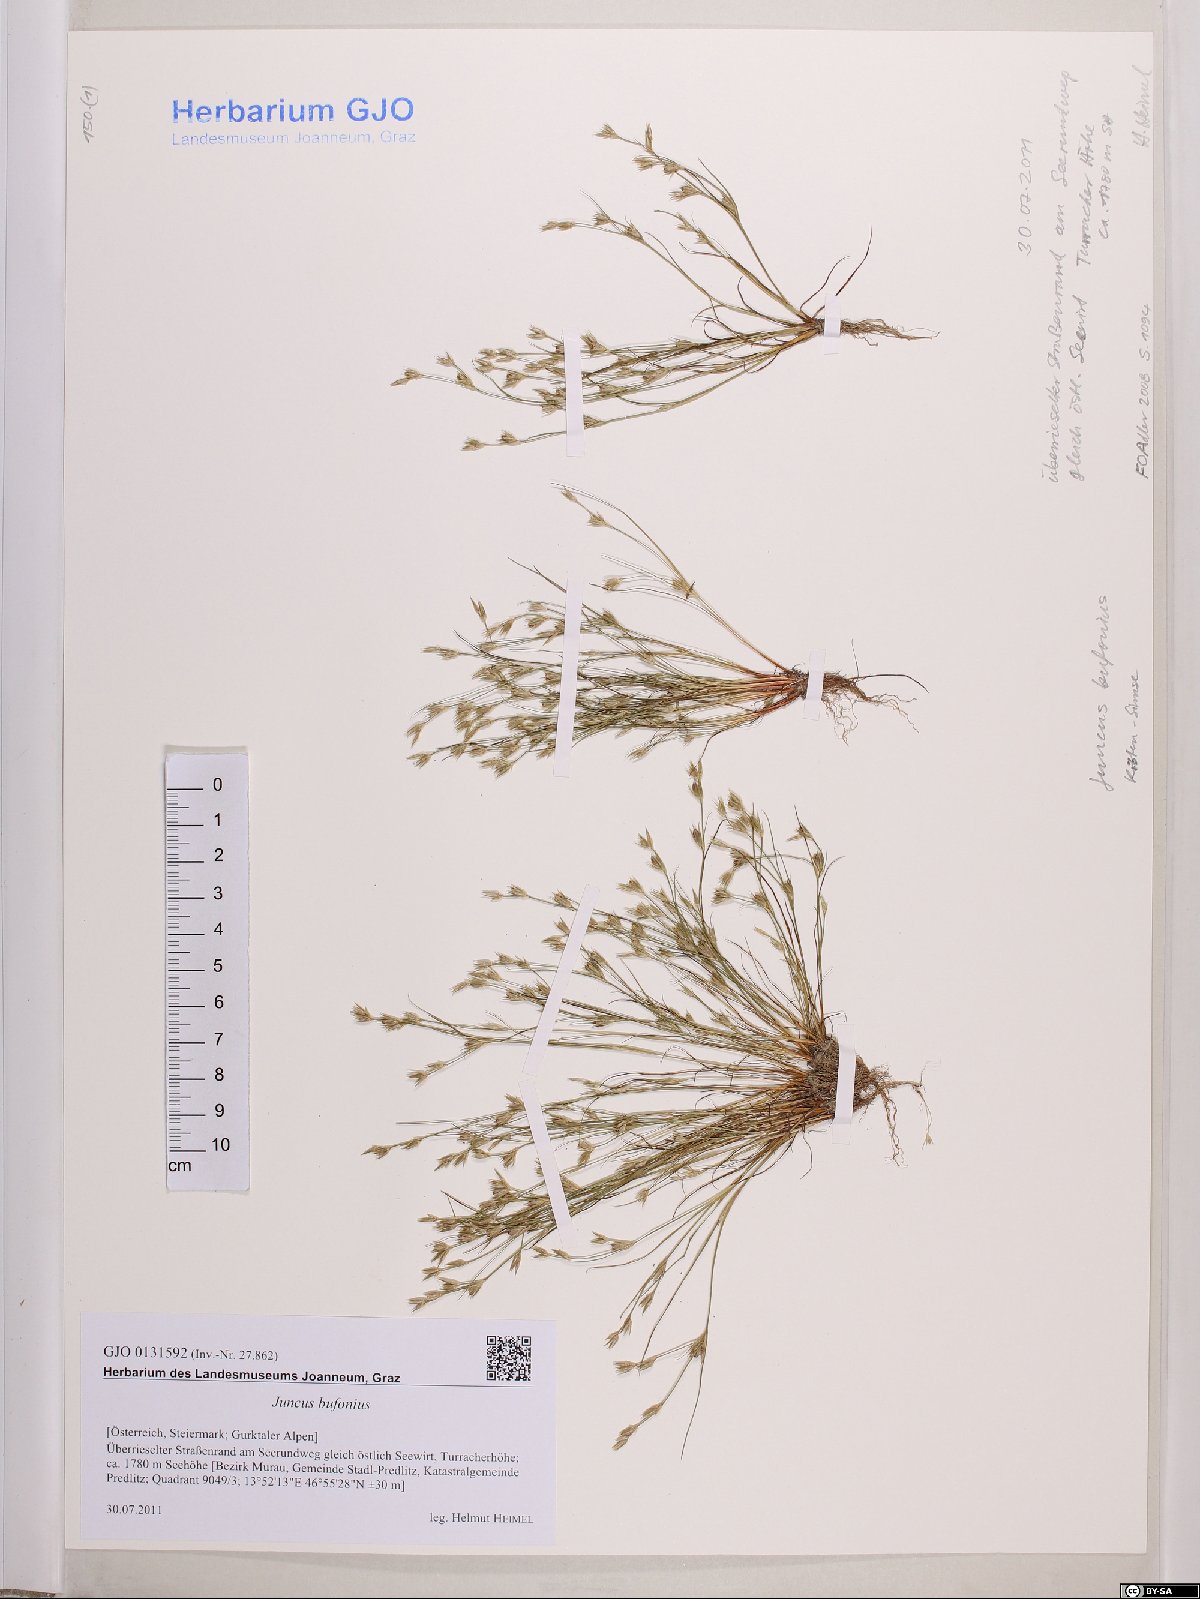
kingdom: Plantae
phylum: Tracheophyta
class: Liliopsida
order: Poales
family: Juncaceae
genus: Juncus
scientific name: Juncus bufonius
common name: Toad rush
